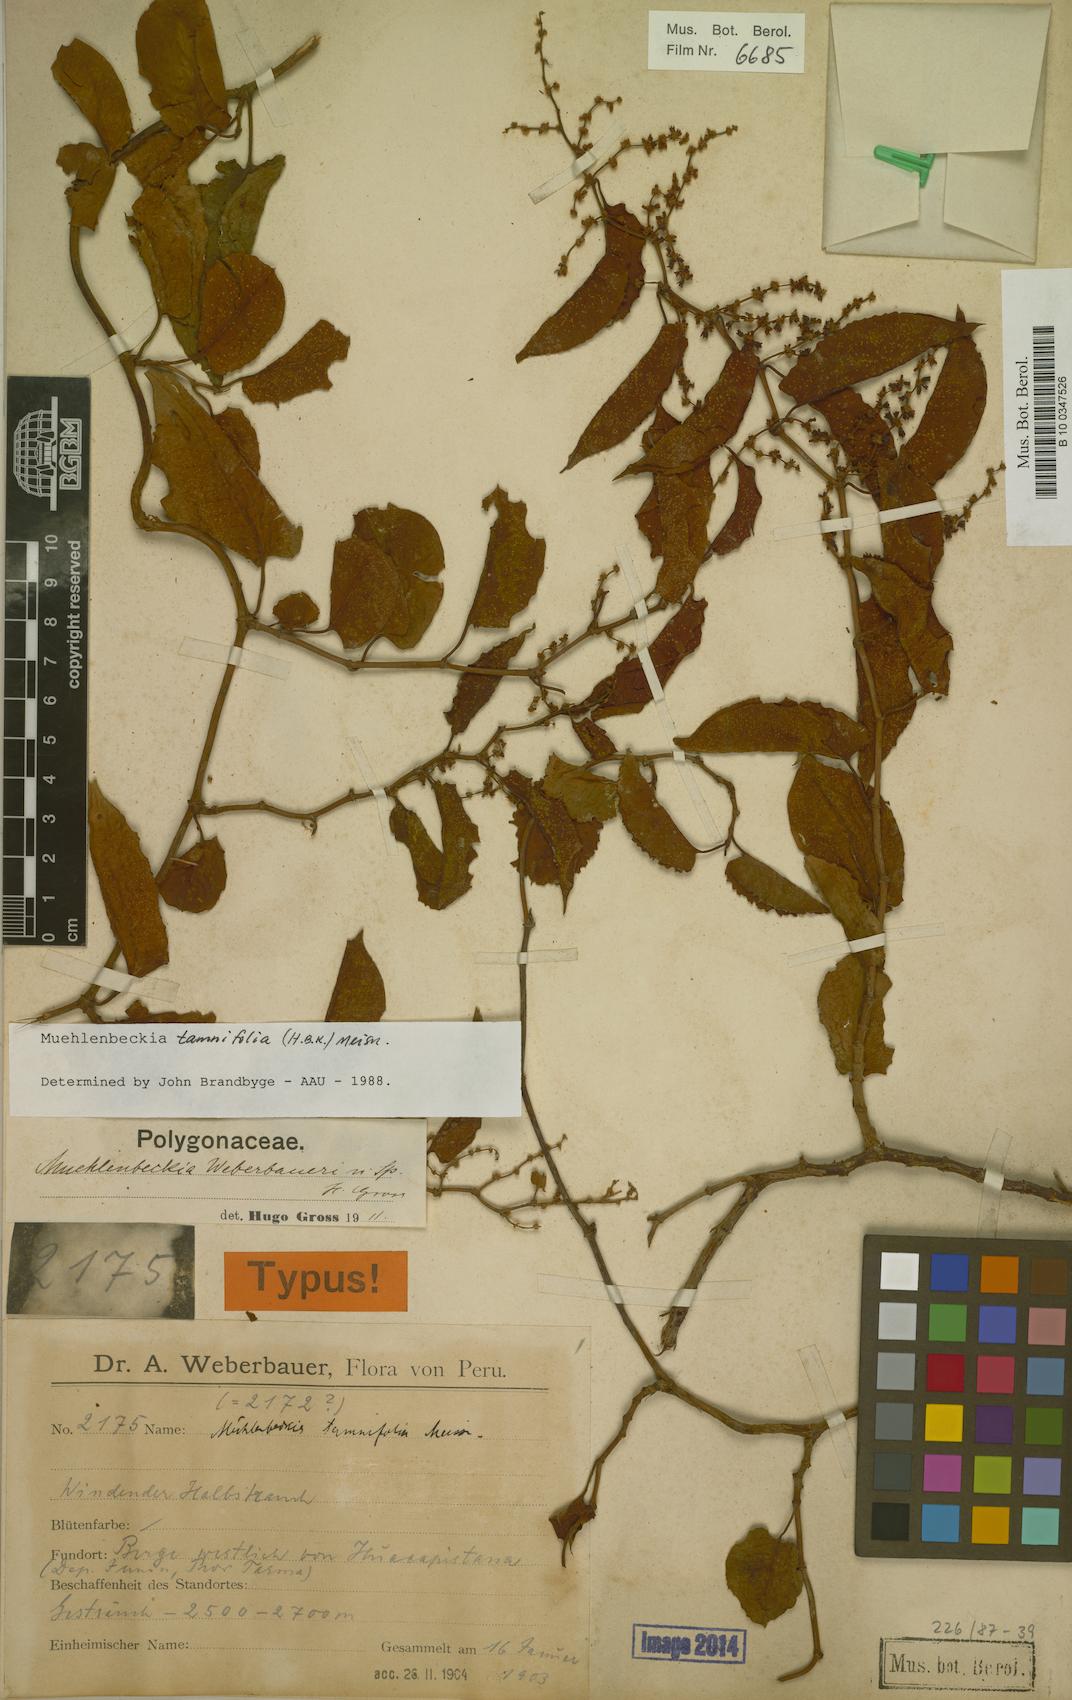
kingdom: Plantae
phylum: Tracheophyta
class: Magnoliopsida
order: Caryophyllales
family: Polygonaceae
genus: Muehlenbeckia
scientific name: Muehlenbeckia tamnifolia
